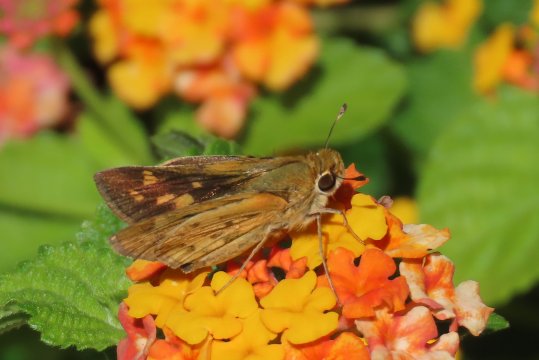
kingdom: Animalia
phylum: Arthropoda
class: Insecta
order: Lepidoptera
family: Hesperiidae
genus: Hylephila
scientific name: Hylephila phyleus
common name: Fiery Skipper
